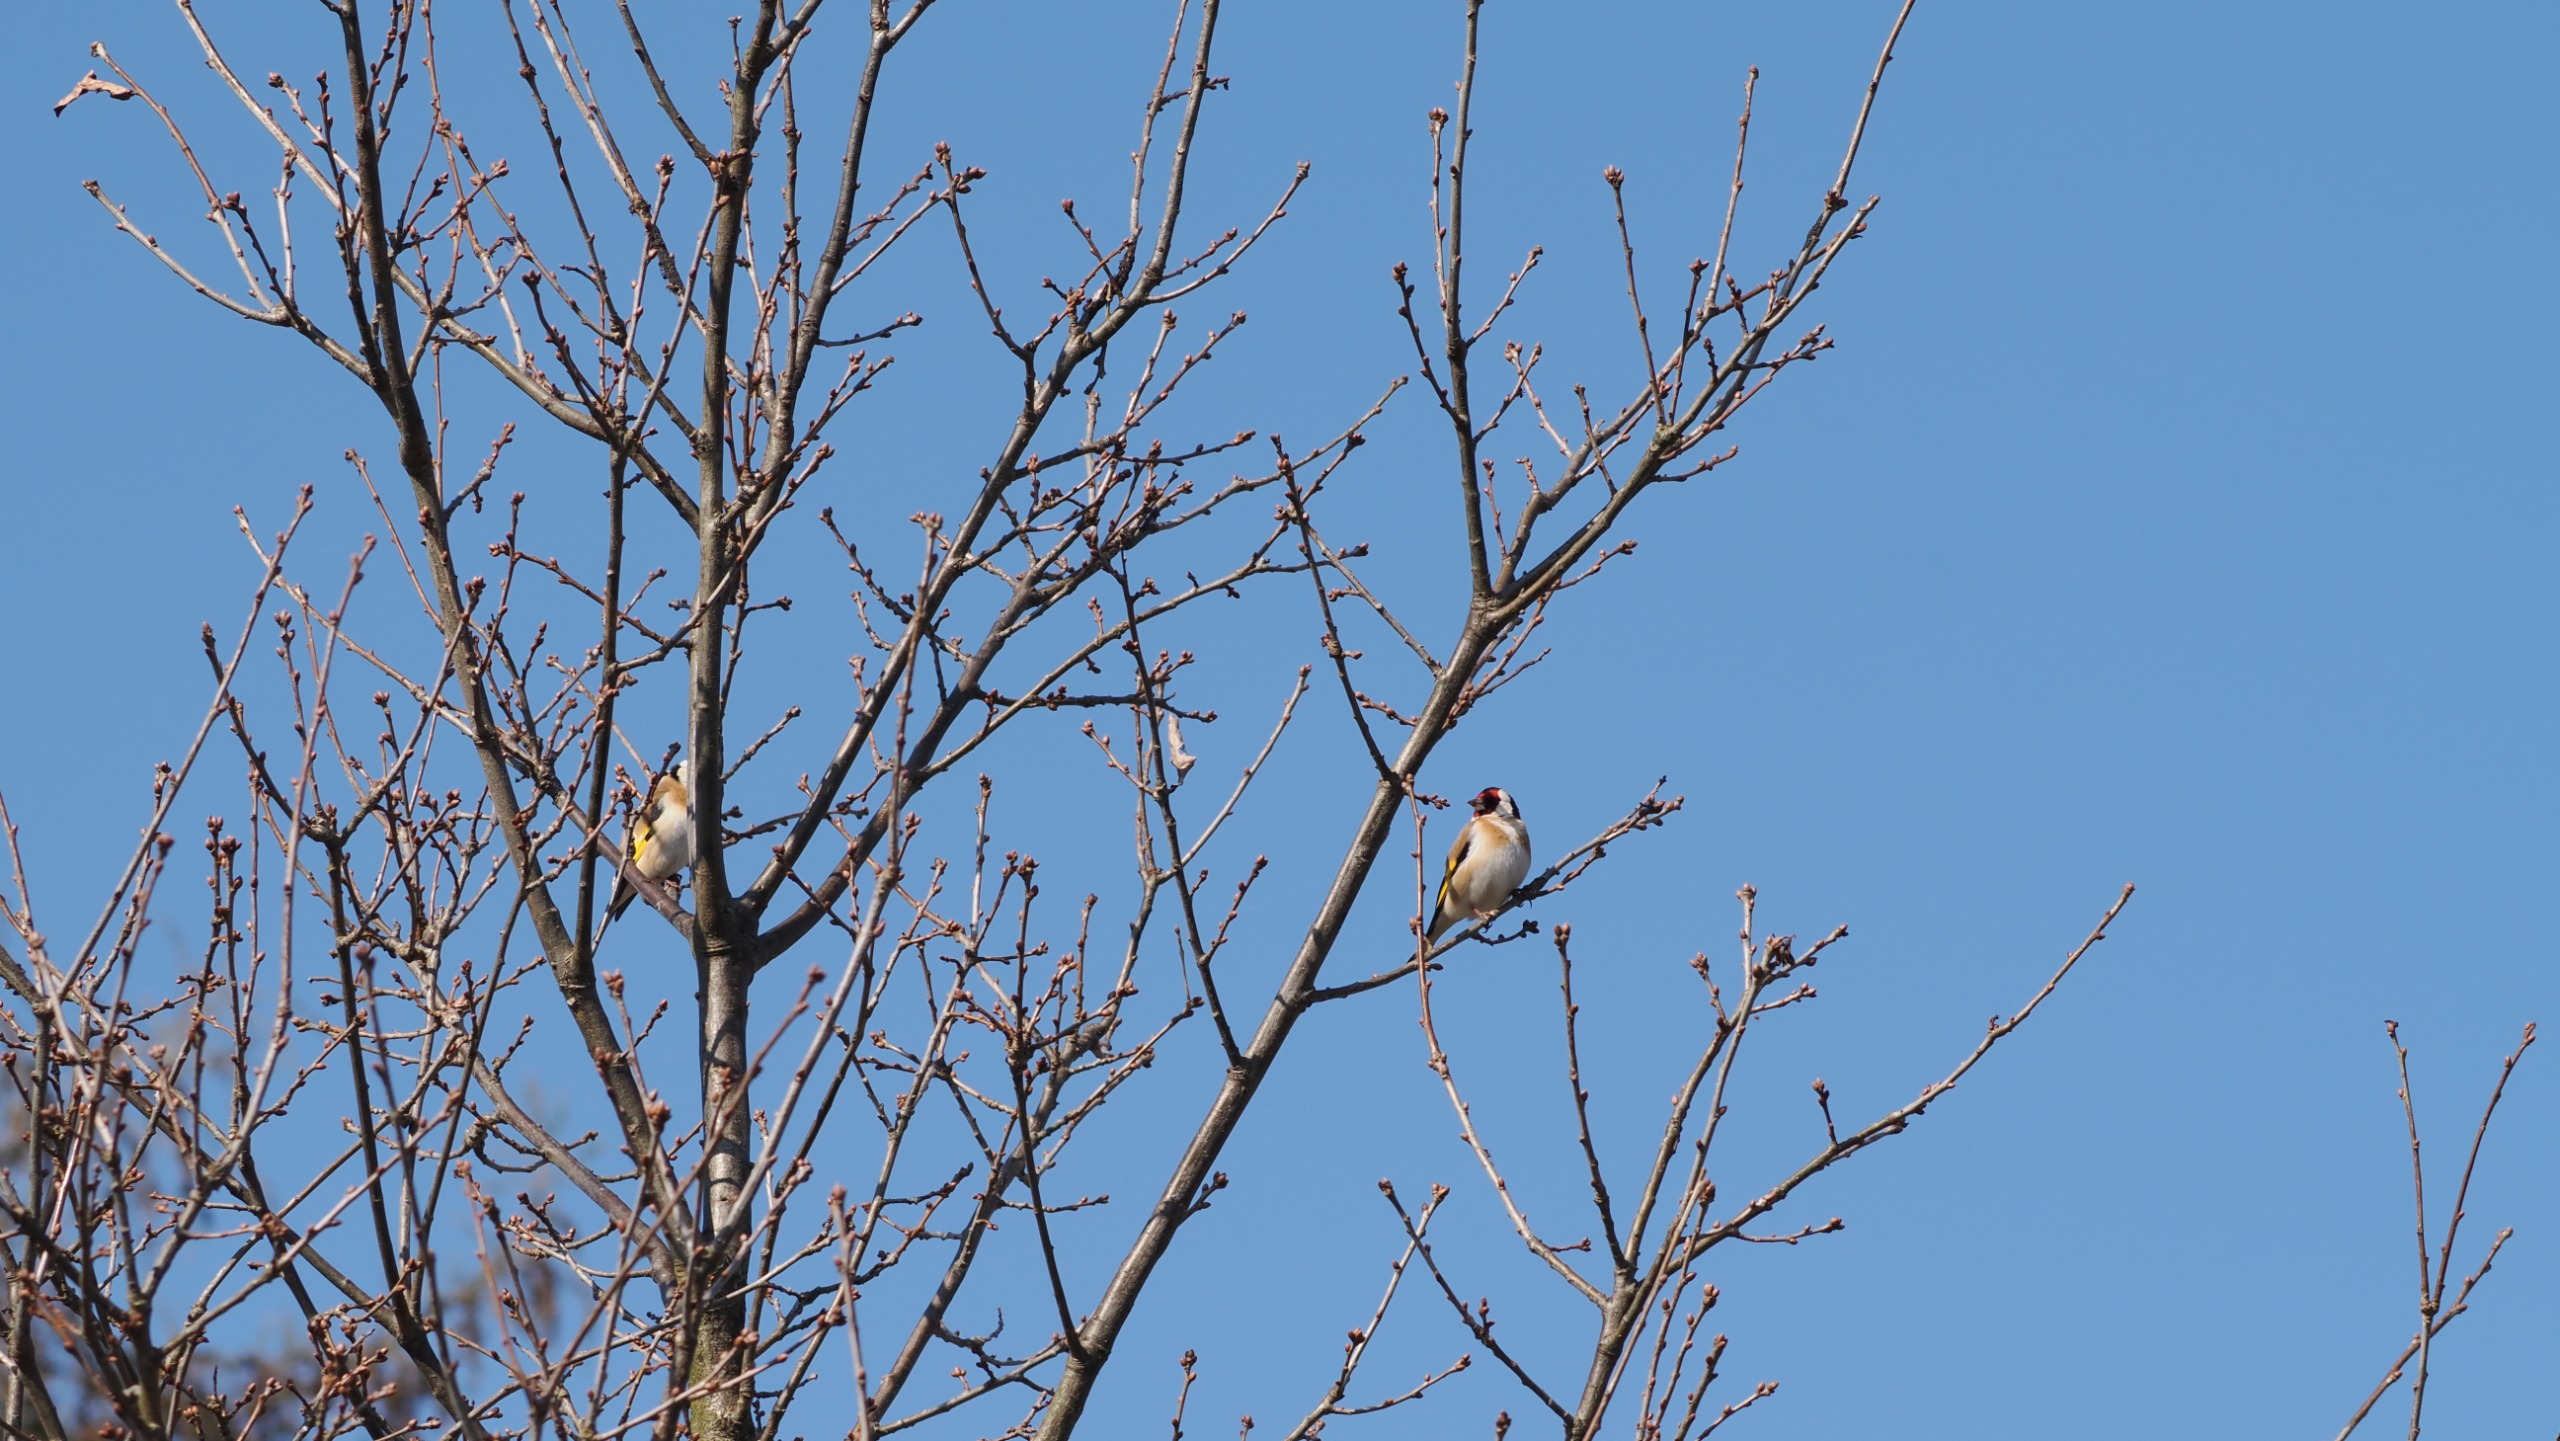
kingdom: Animalia
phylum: Chordata
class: Aves
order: Passeriformes
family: Fringillidae
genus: Carduelis
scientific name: Carduelis carduelis
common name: Stillits
